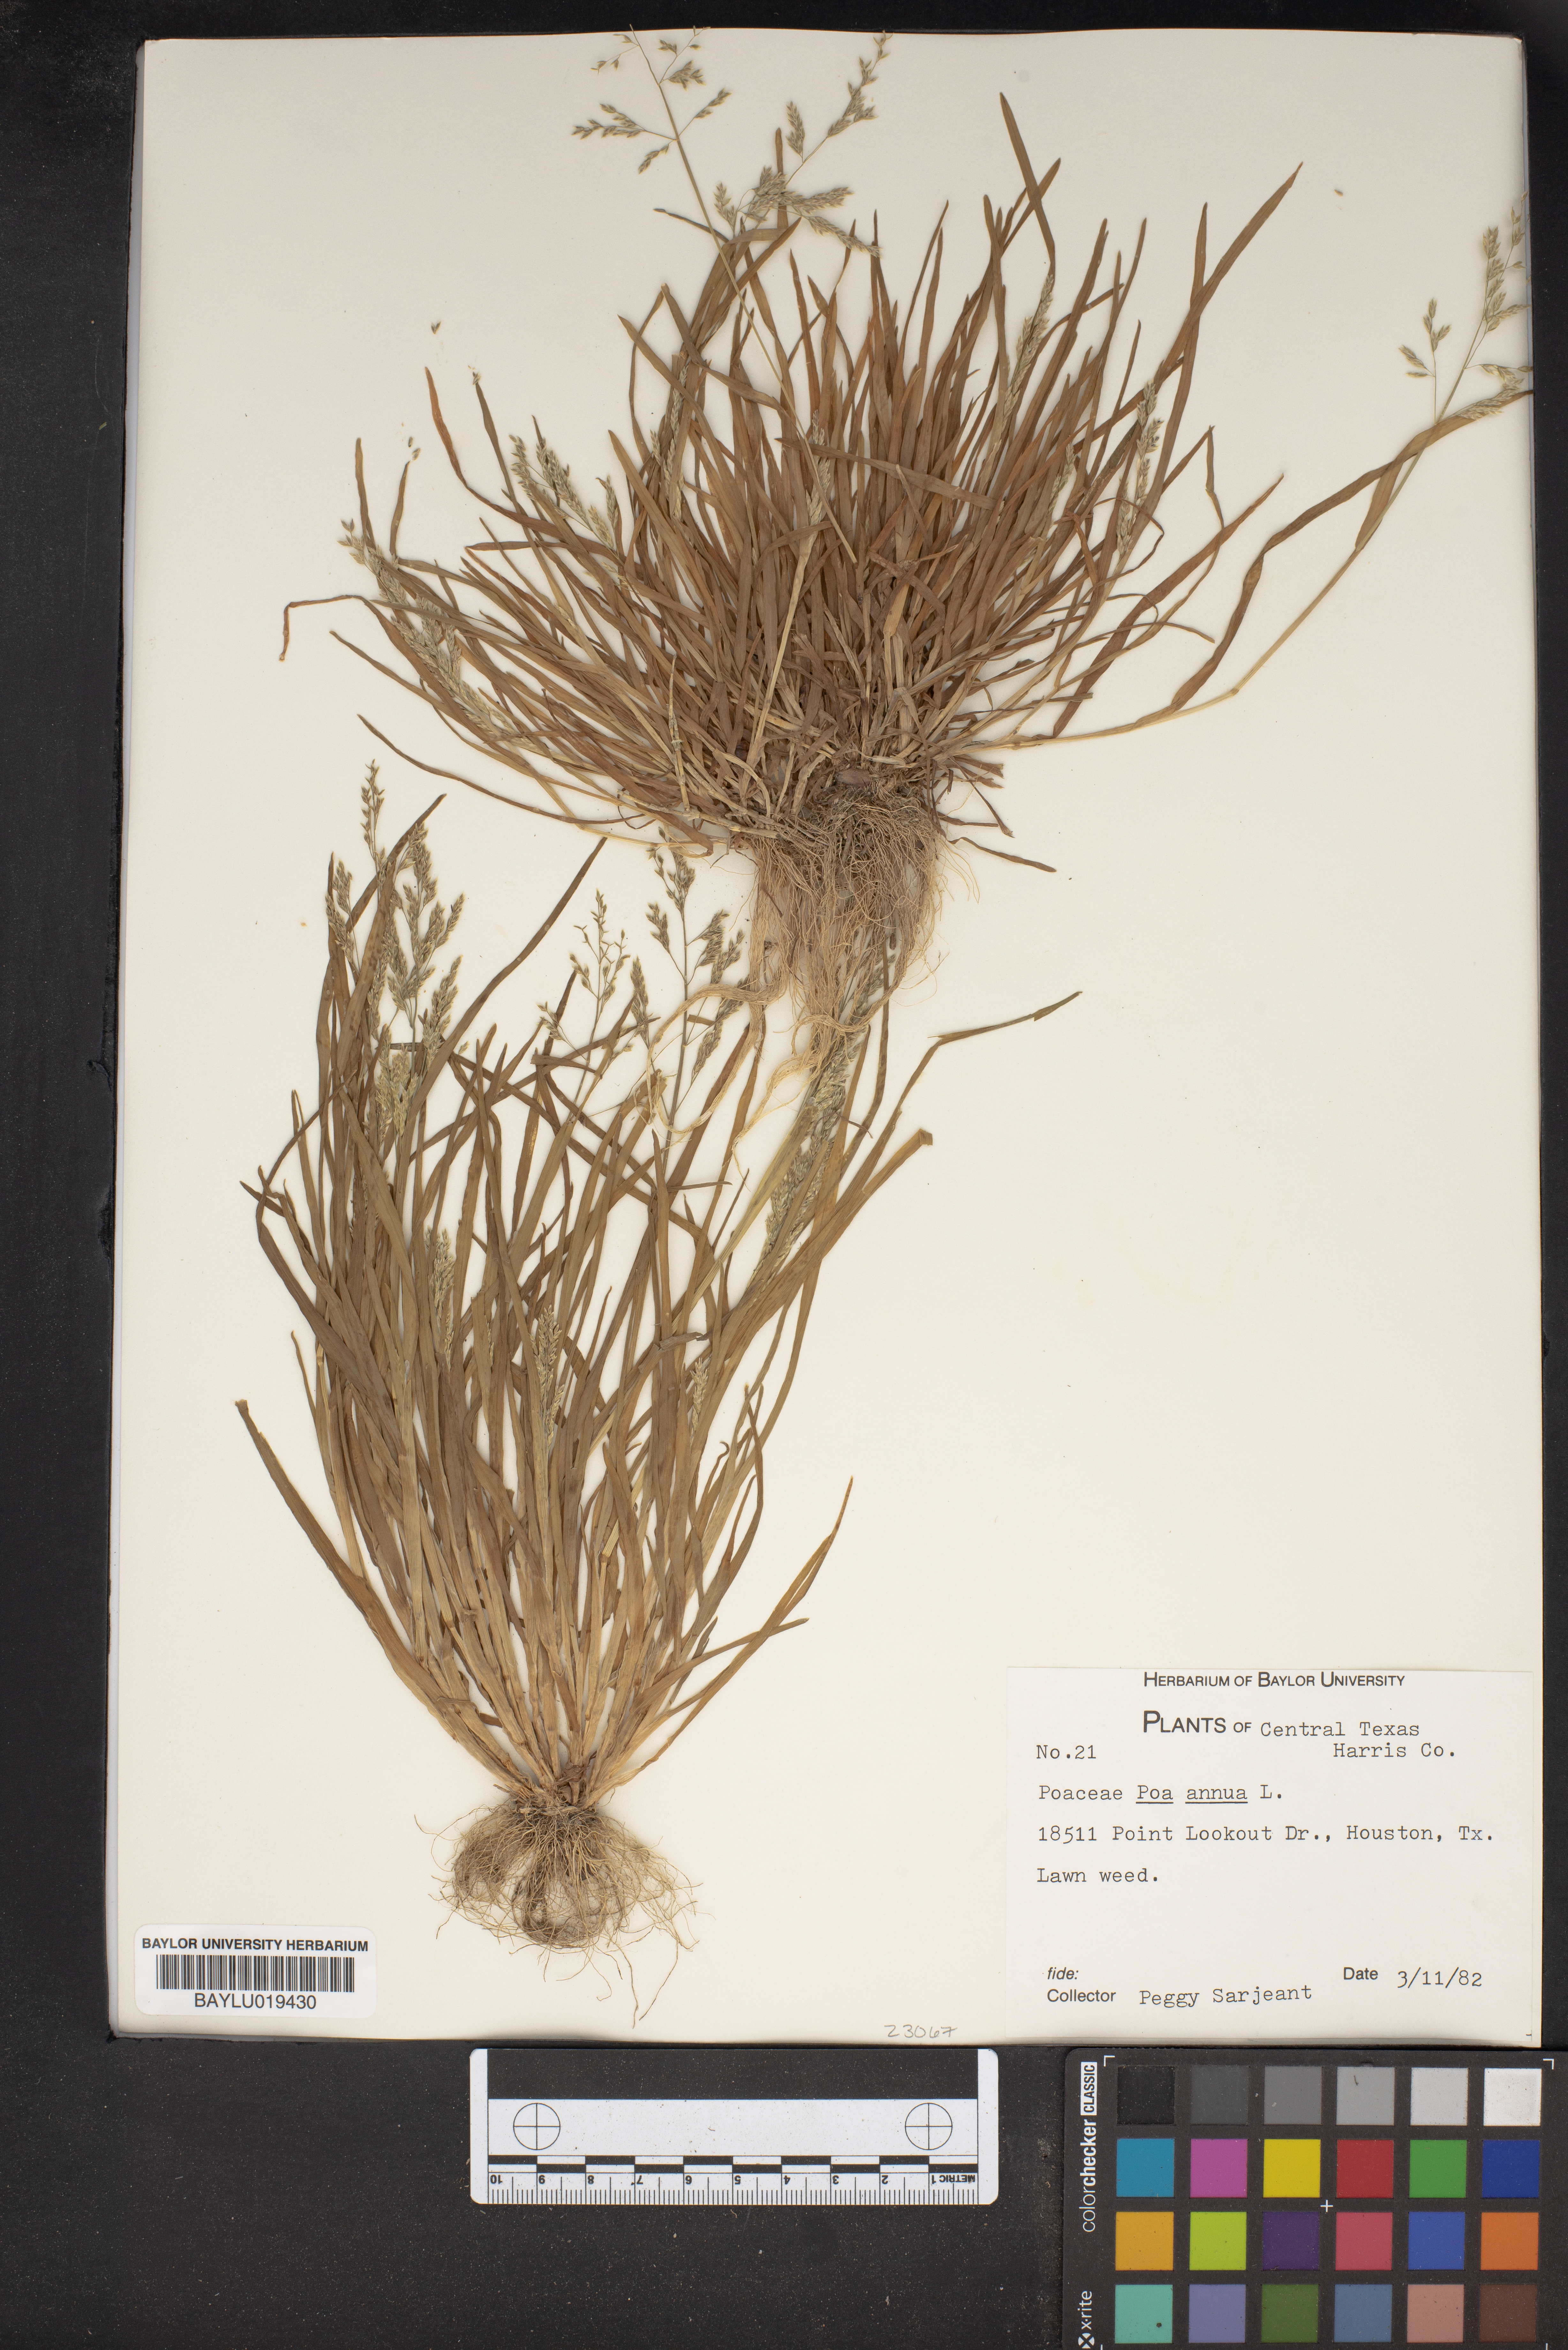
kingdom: Plantae
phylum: Tracheophyta
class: Liliopsida
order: Poales
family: Poaceae
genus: Poa
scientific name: Poa annua
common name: Annual bluegrass
